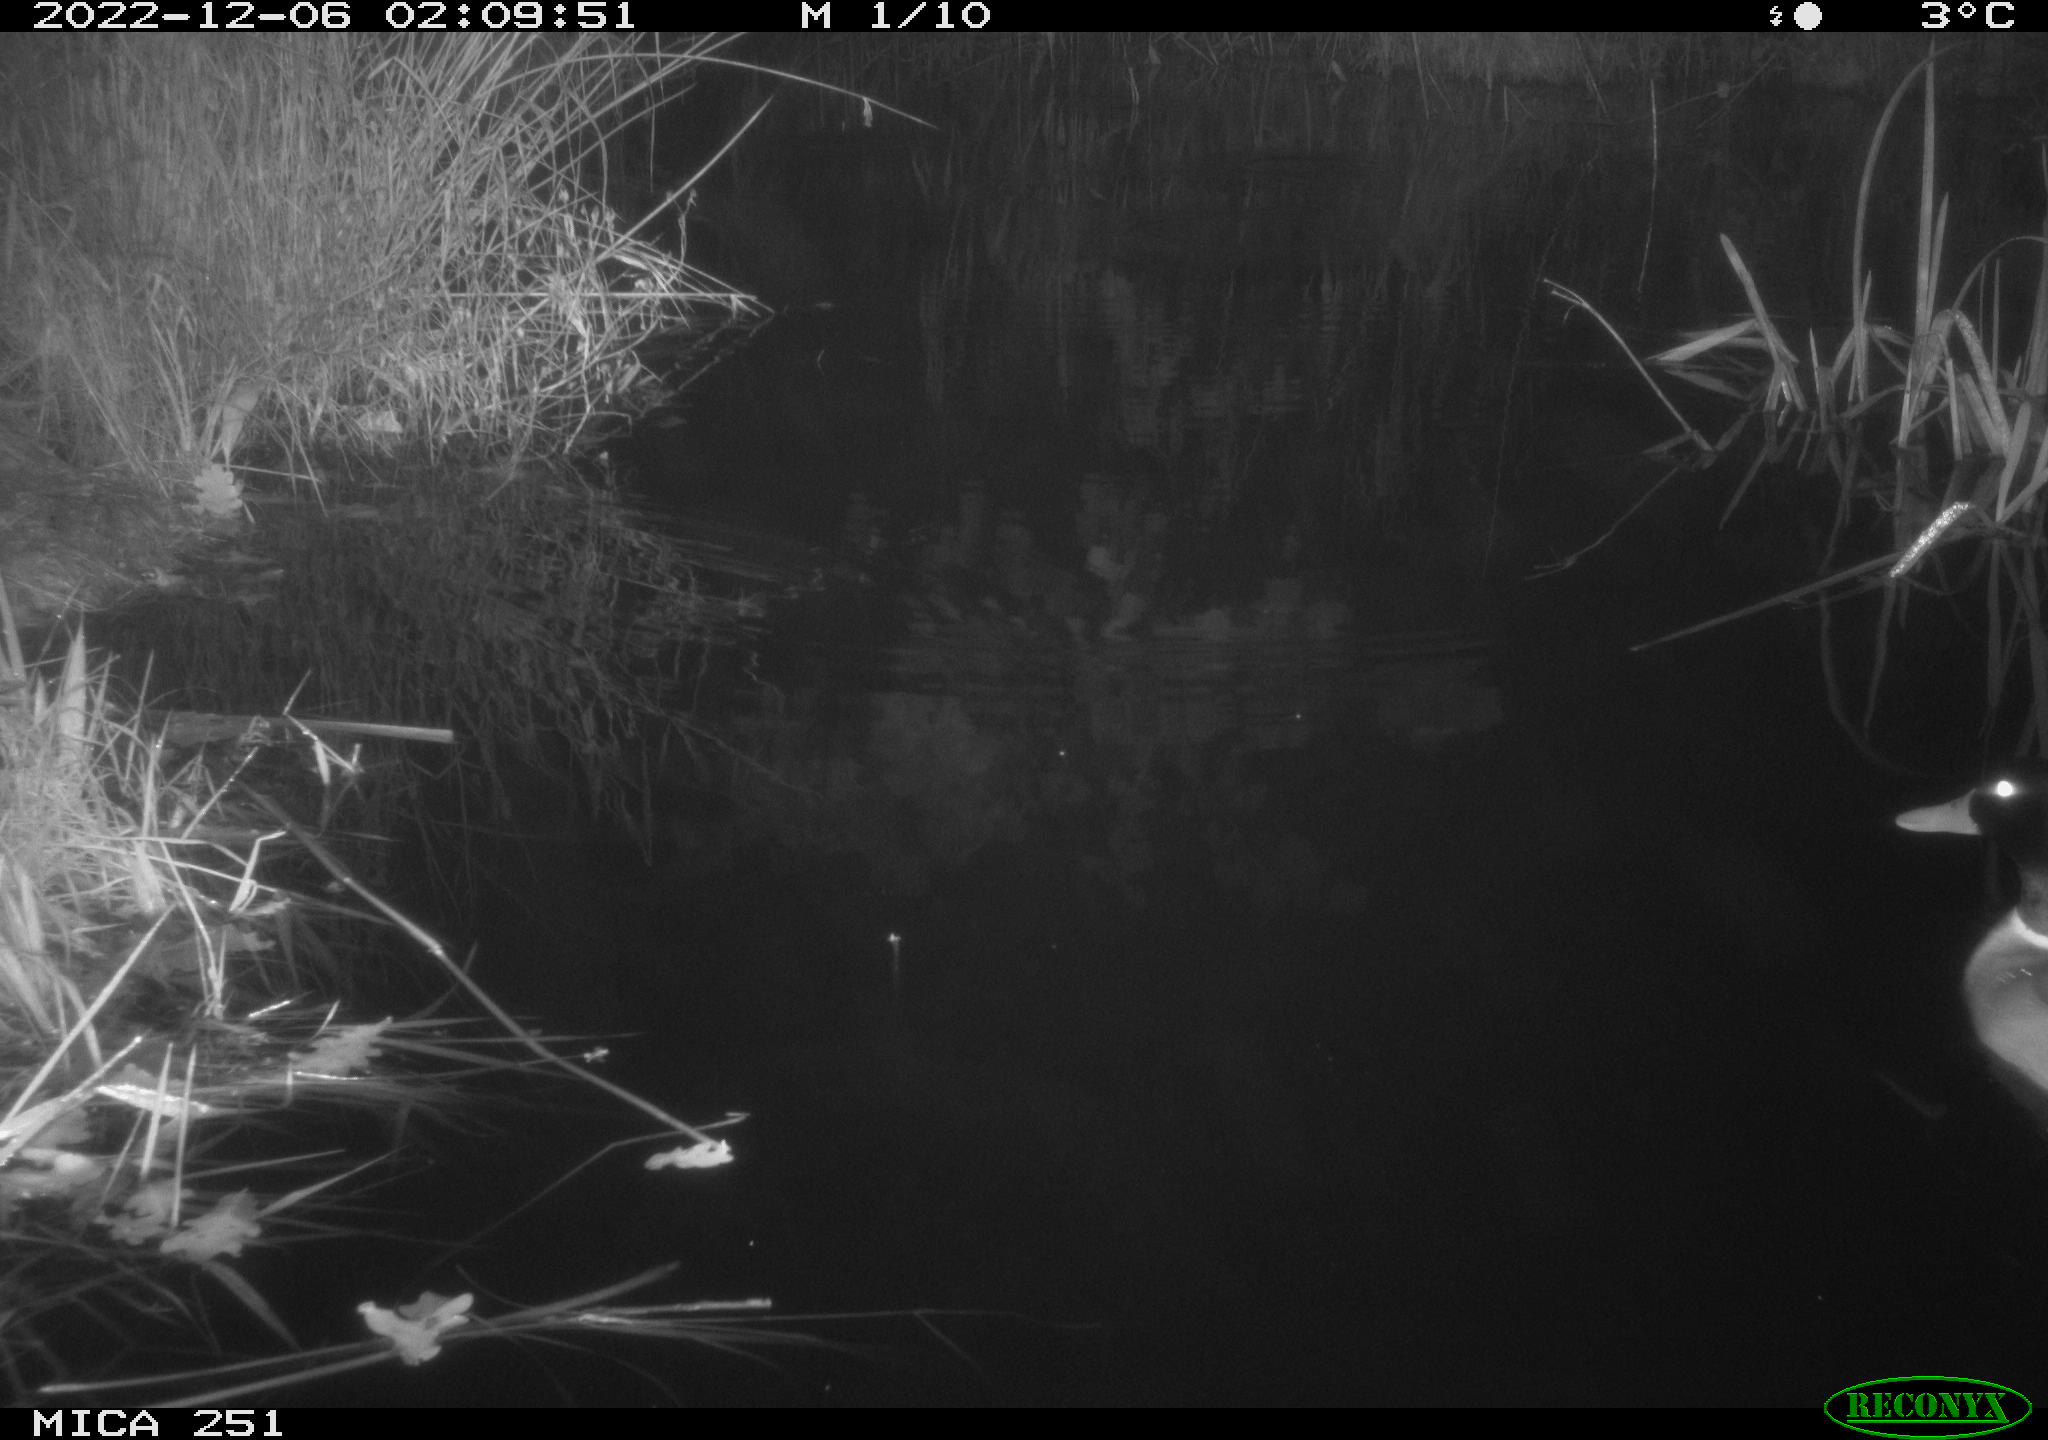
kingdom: Animalia
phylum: Chordata
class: Aves
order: Anseriformes
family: Anatidae
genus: Anas
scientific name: Anas
